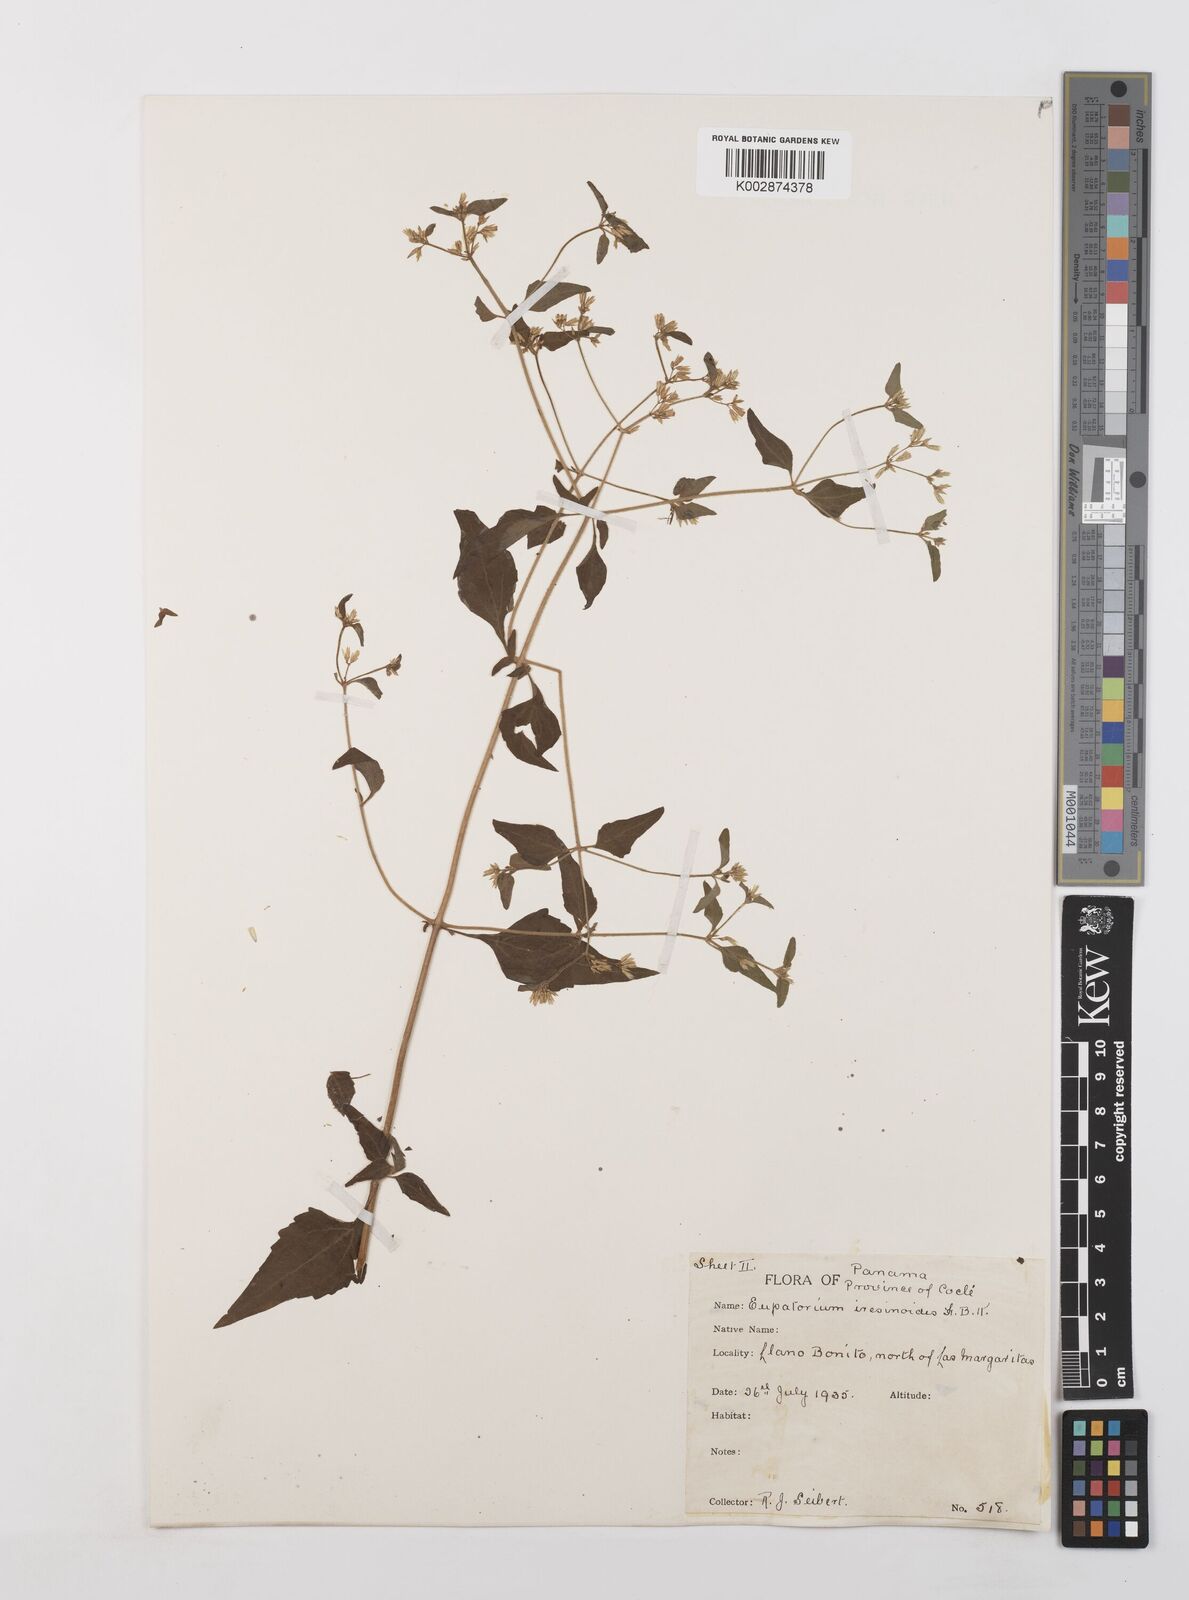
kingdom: Plantae
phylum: Tracheophyta
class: Magnoliopsida
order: Asterales
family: Asteraceae
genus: Condylidium
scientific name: Condylidium iresinoides
